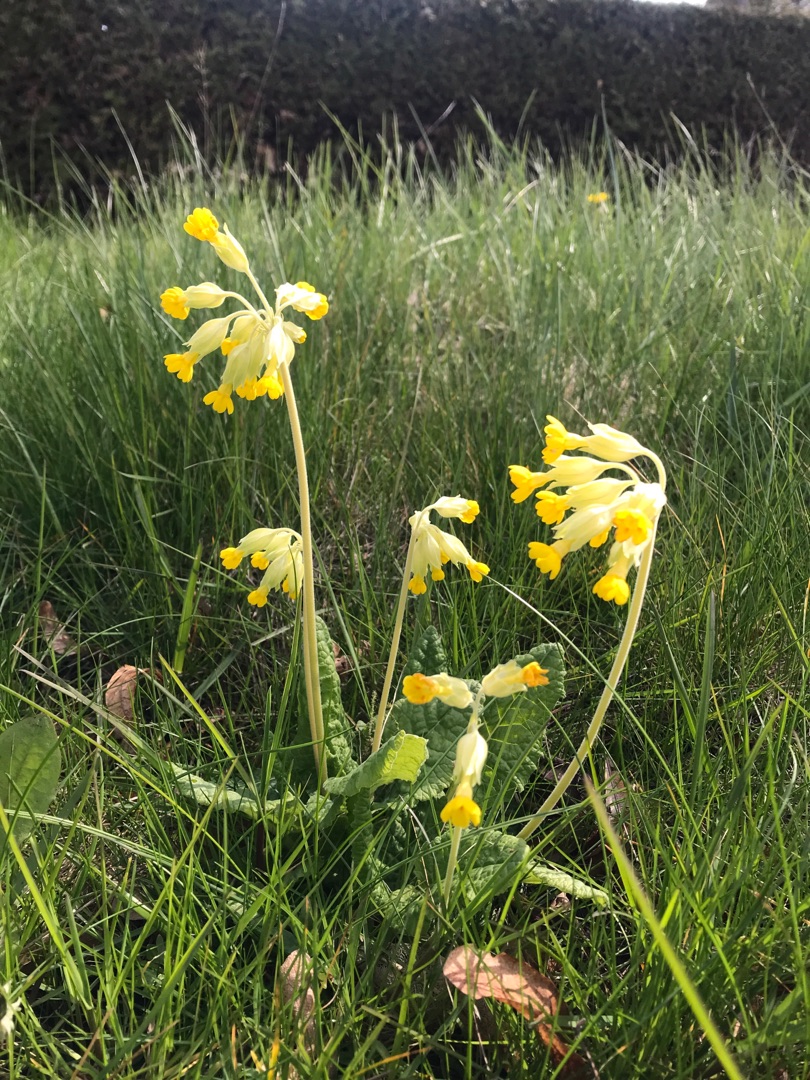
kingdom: Plantae
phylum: Tracheophyta
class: Magnoliopsida
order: Ericales
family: Primulaceae
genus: Primula
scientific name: Primula veris
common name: Hulkravet kodriver
